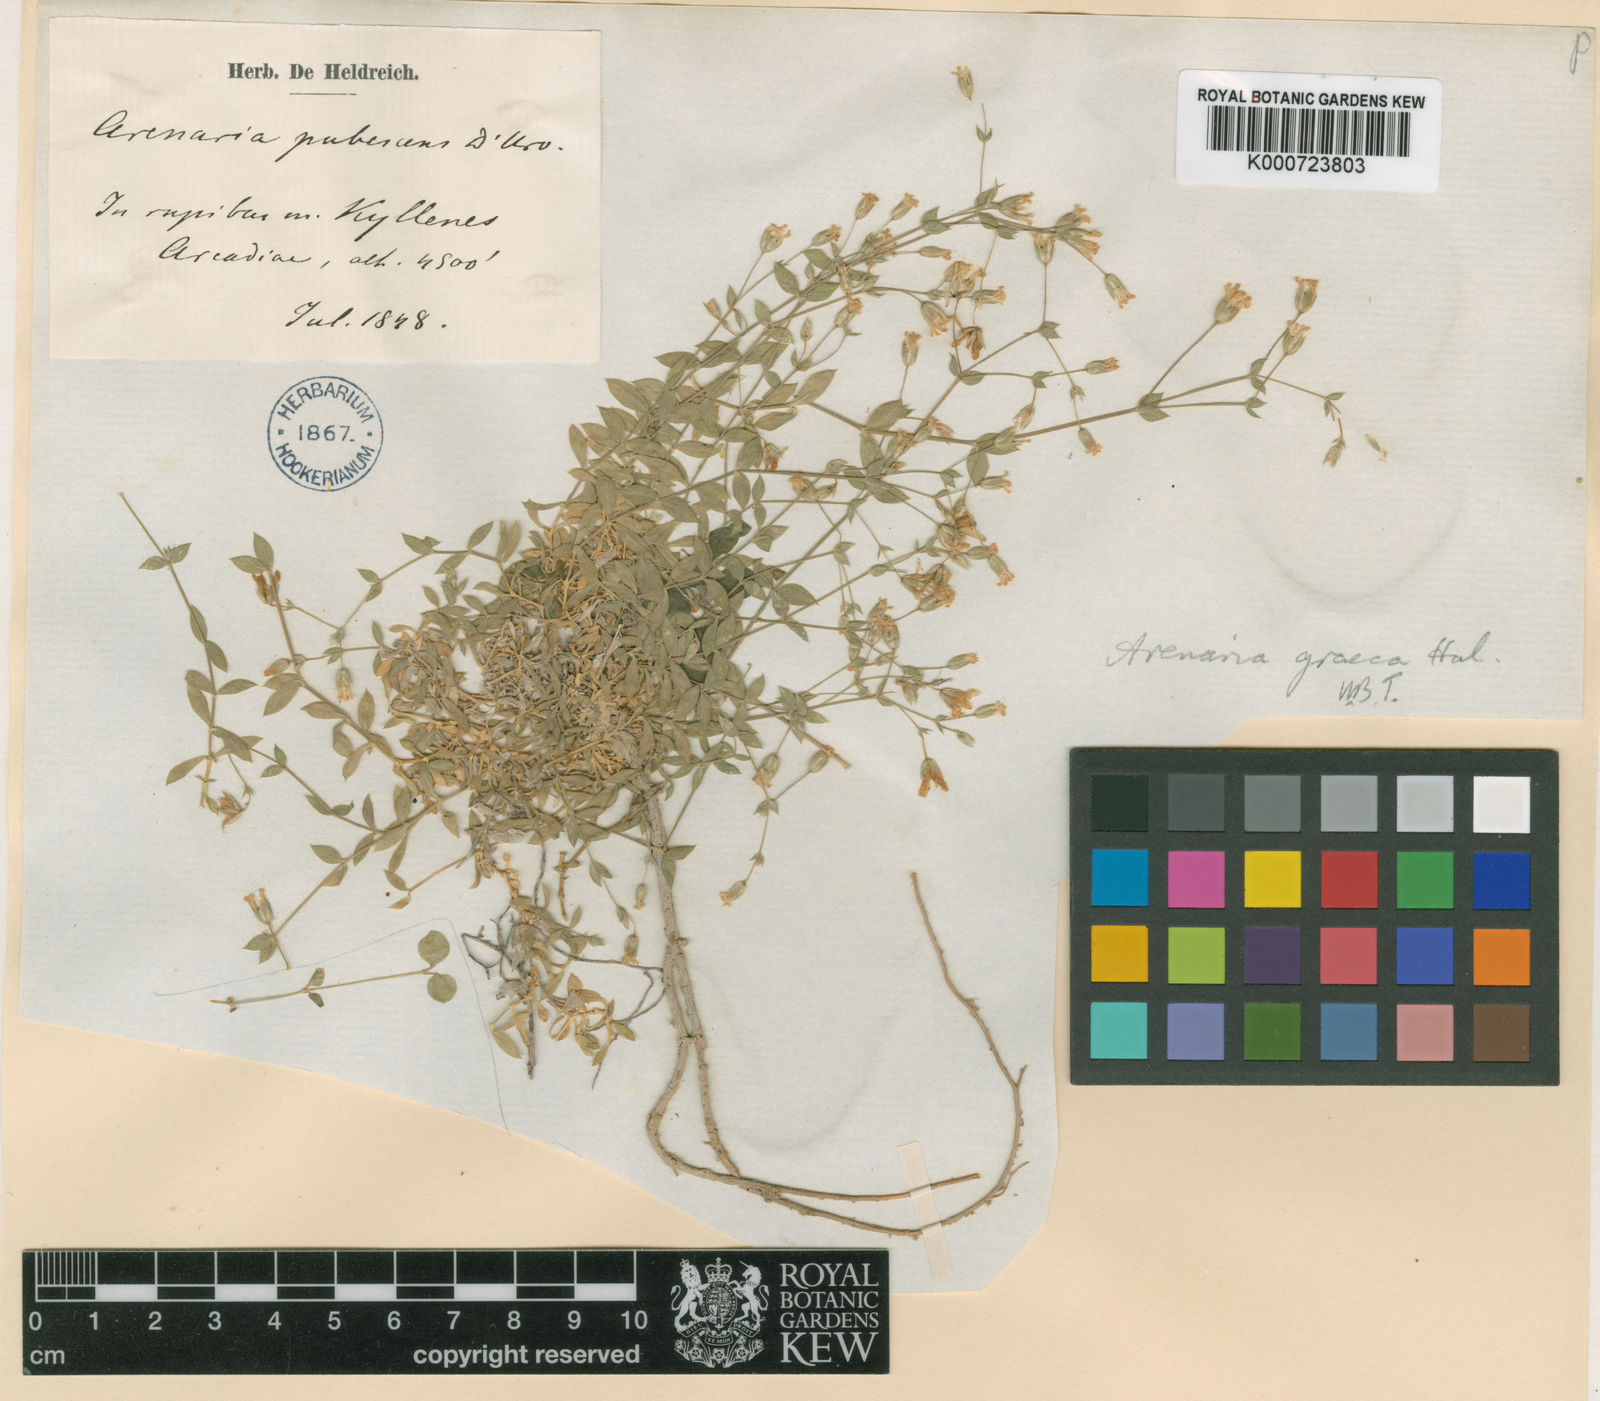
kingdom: Plantae
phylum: Tracheophyta
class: Magnoliopsida
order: Caryophyllales
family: Caryophyllaceae
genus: Arenaria
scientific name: Arenaria
